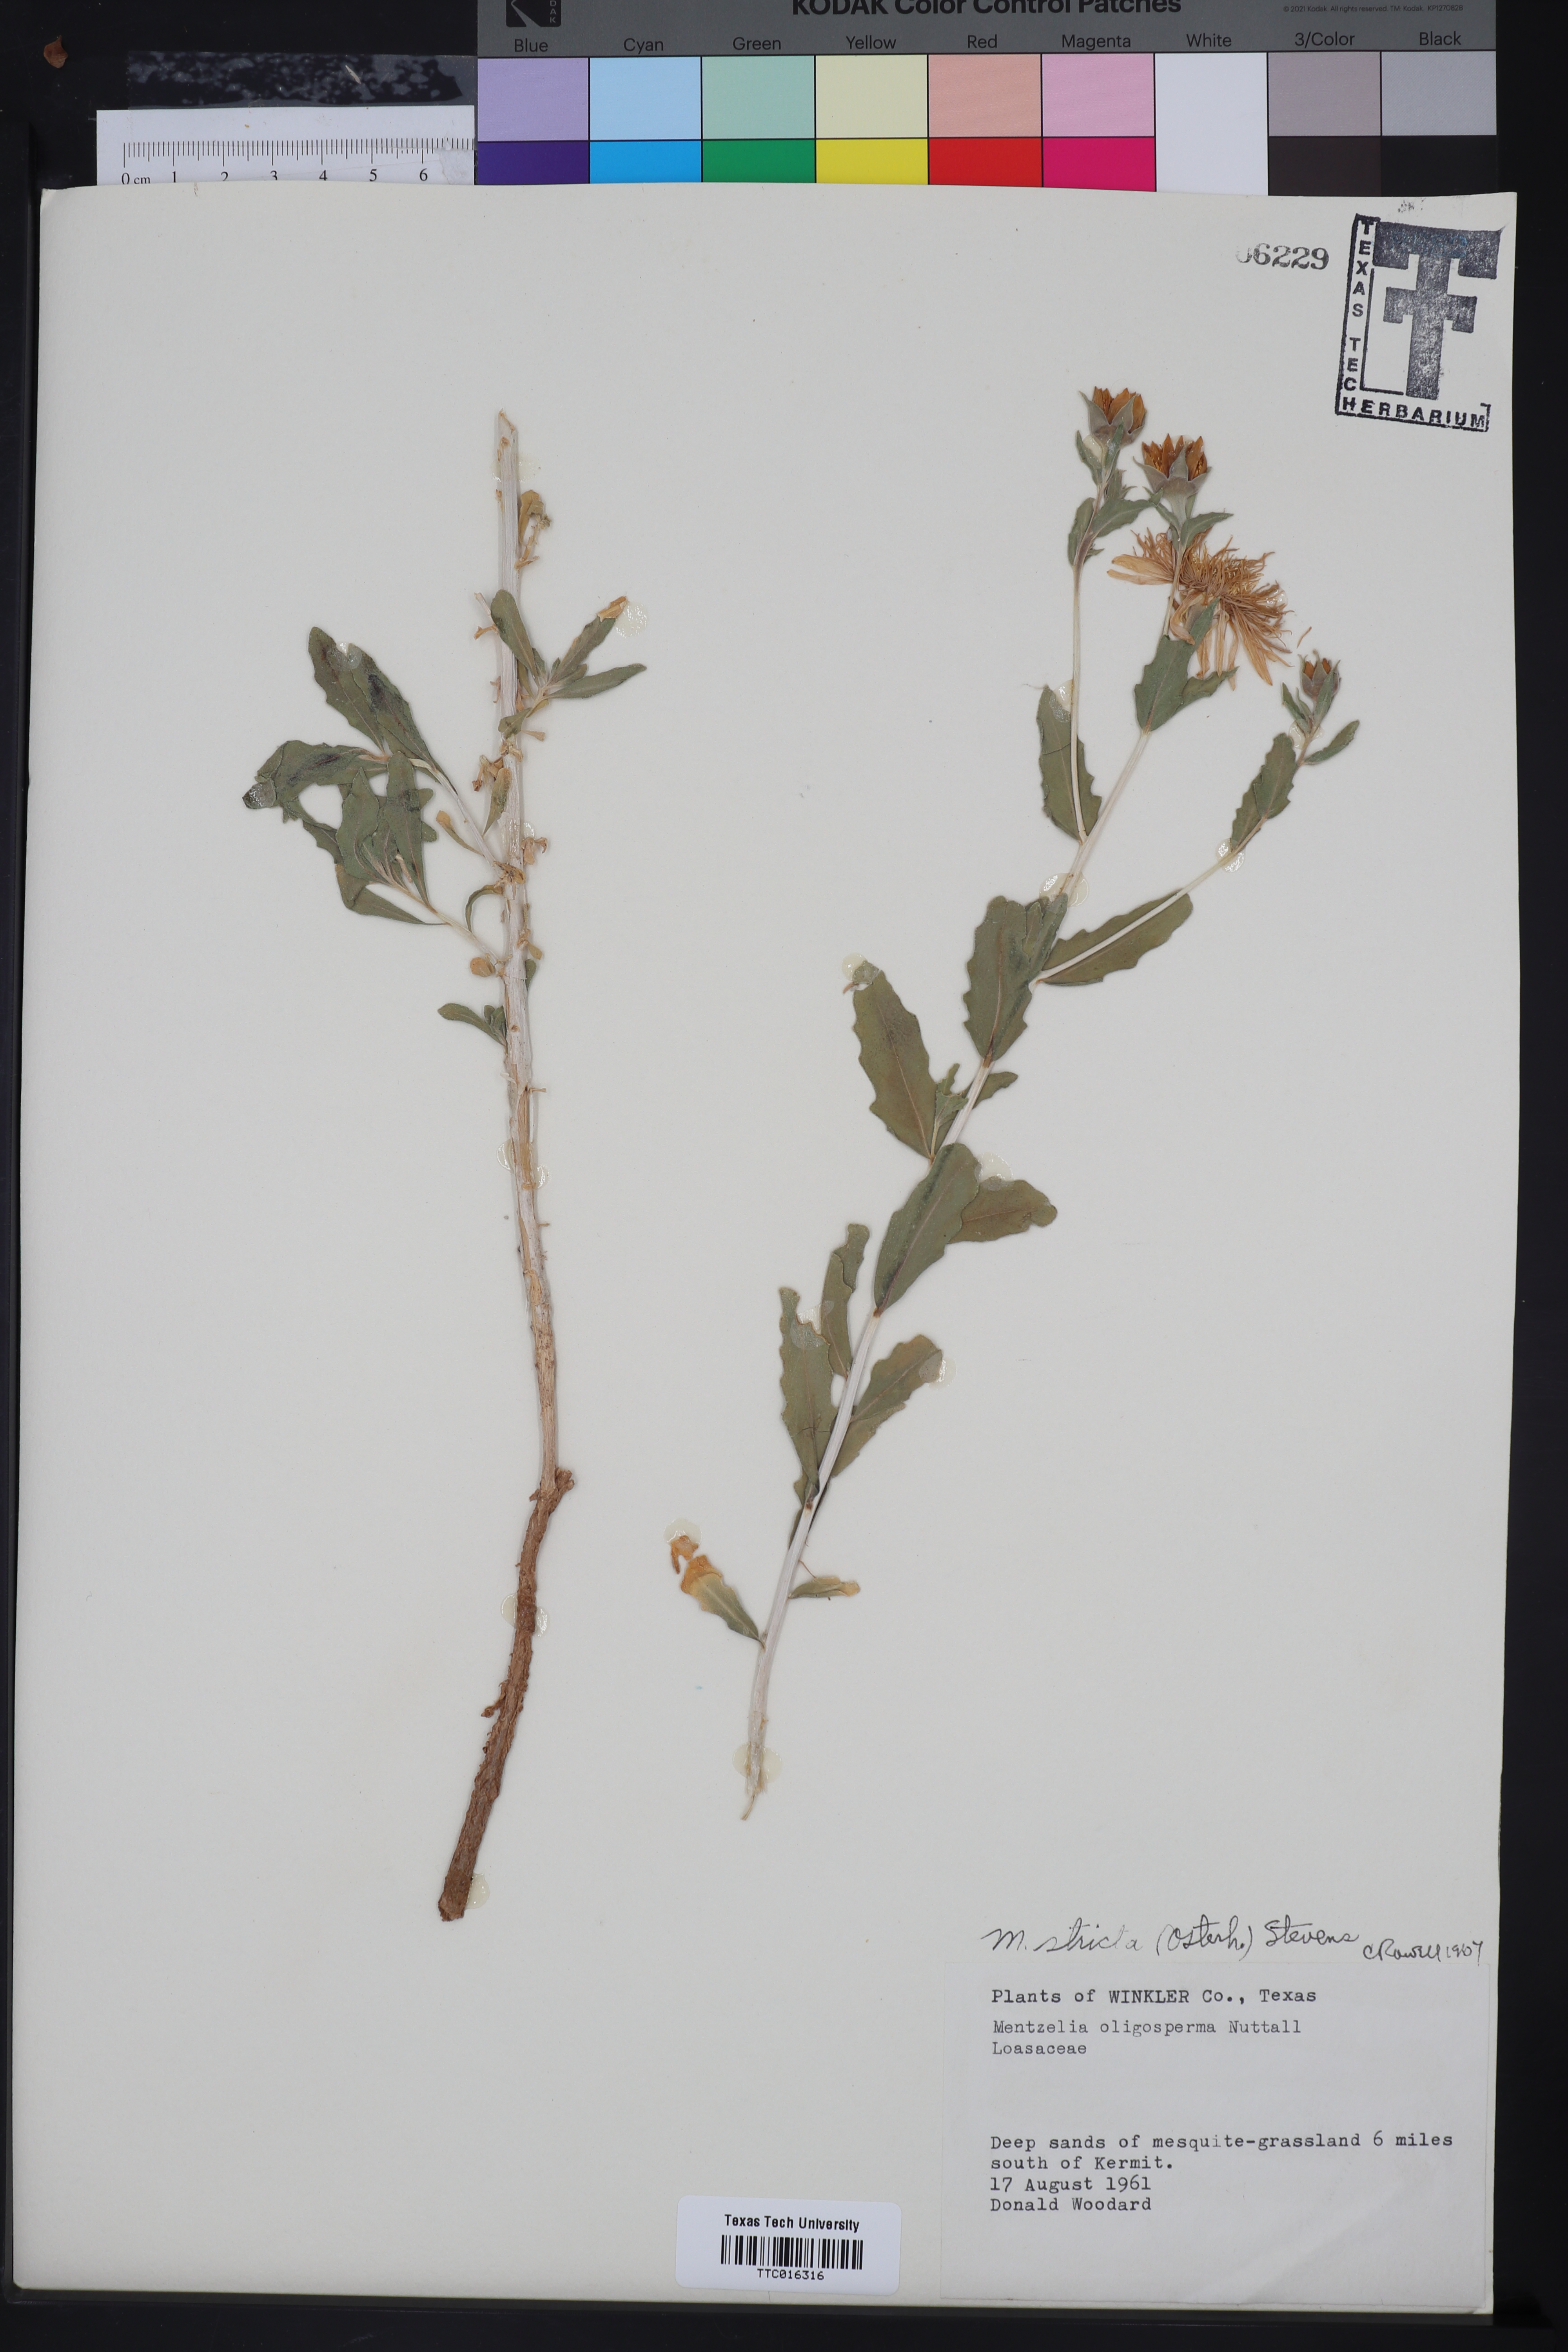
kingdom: Plantae
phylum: Tracheophyta
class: Magnoliopsida
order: Cornales
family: Loasaceae
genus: Mentzelia
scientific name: Mentzelia nuda
